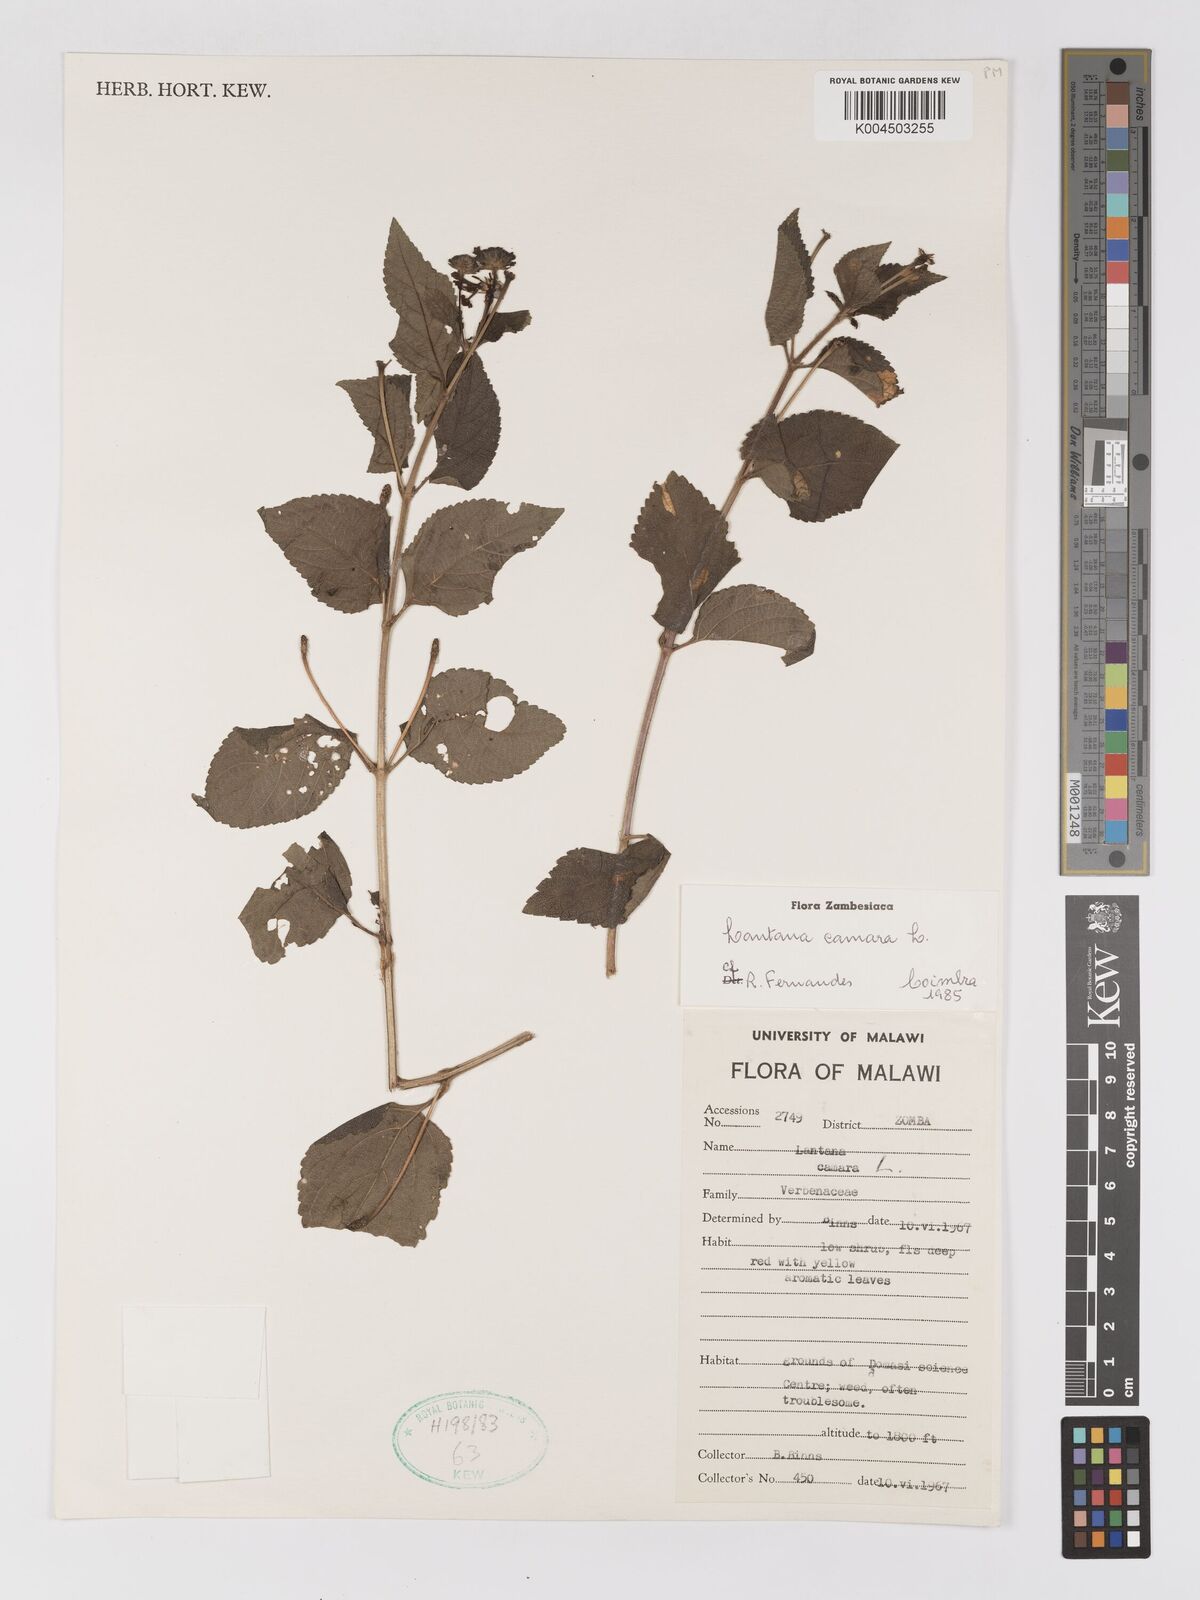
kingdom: Plantae
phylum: Tracheophyta
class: Magnoliopsida
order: Lamiales
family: Verbenaceae
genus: Lantana
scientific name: Lantana camara
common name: Lantana
